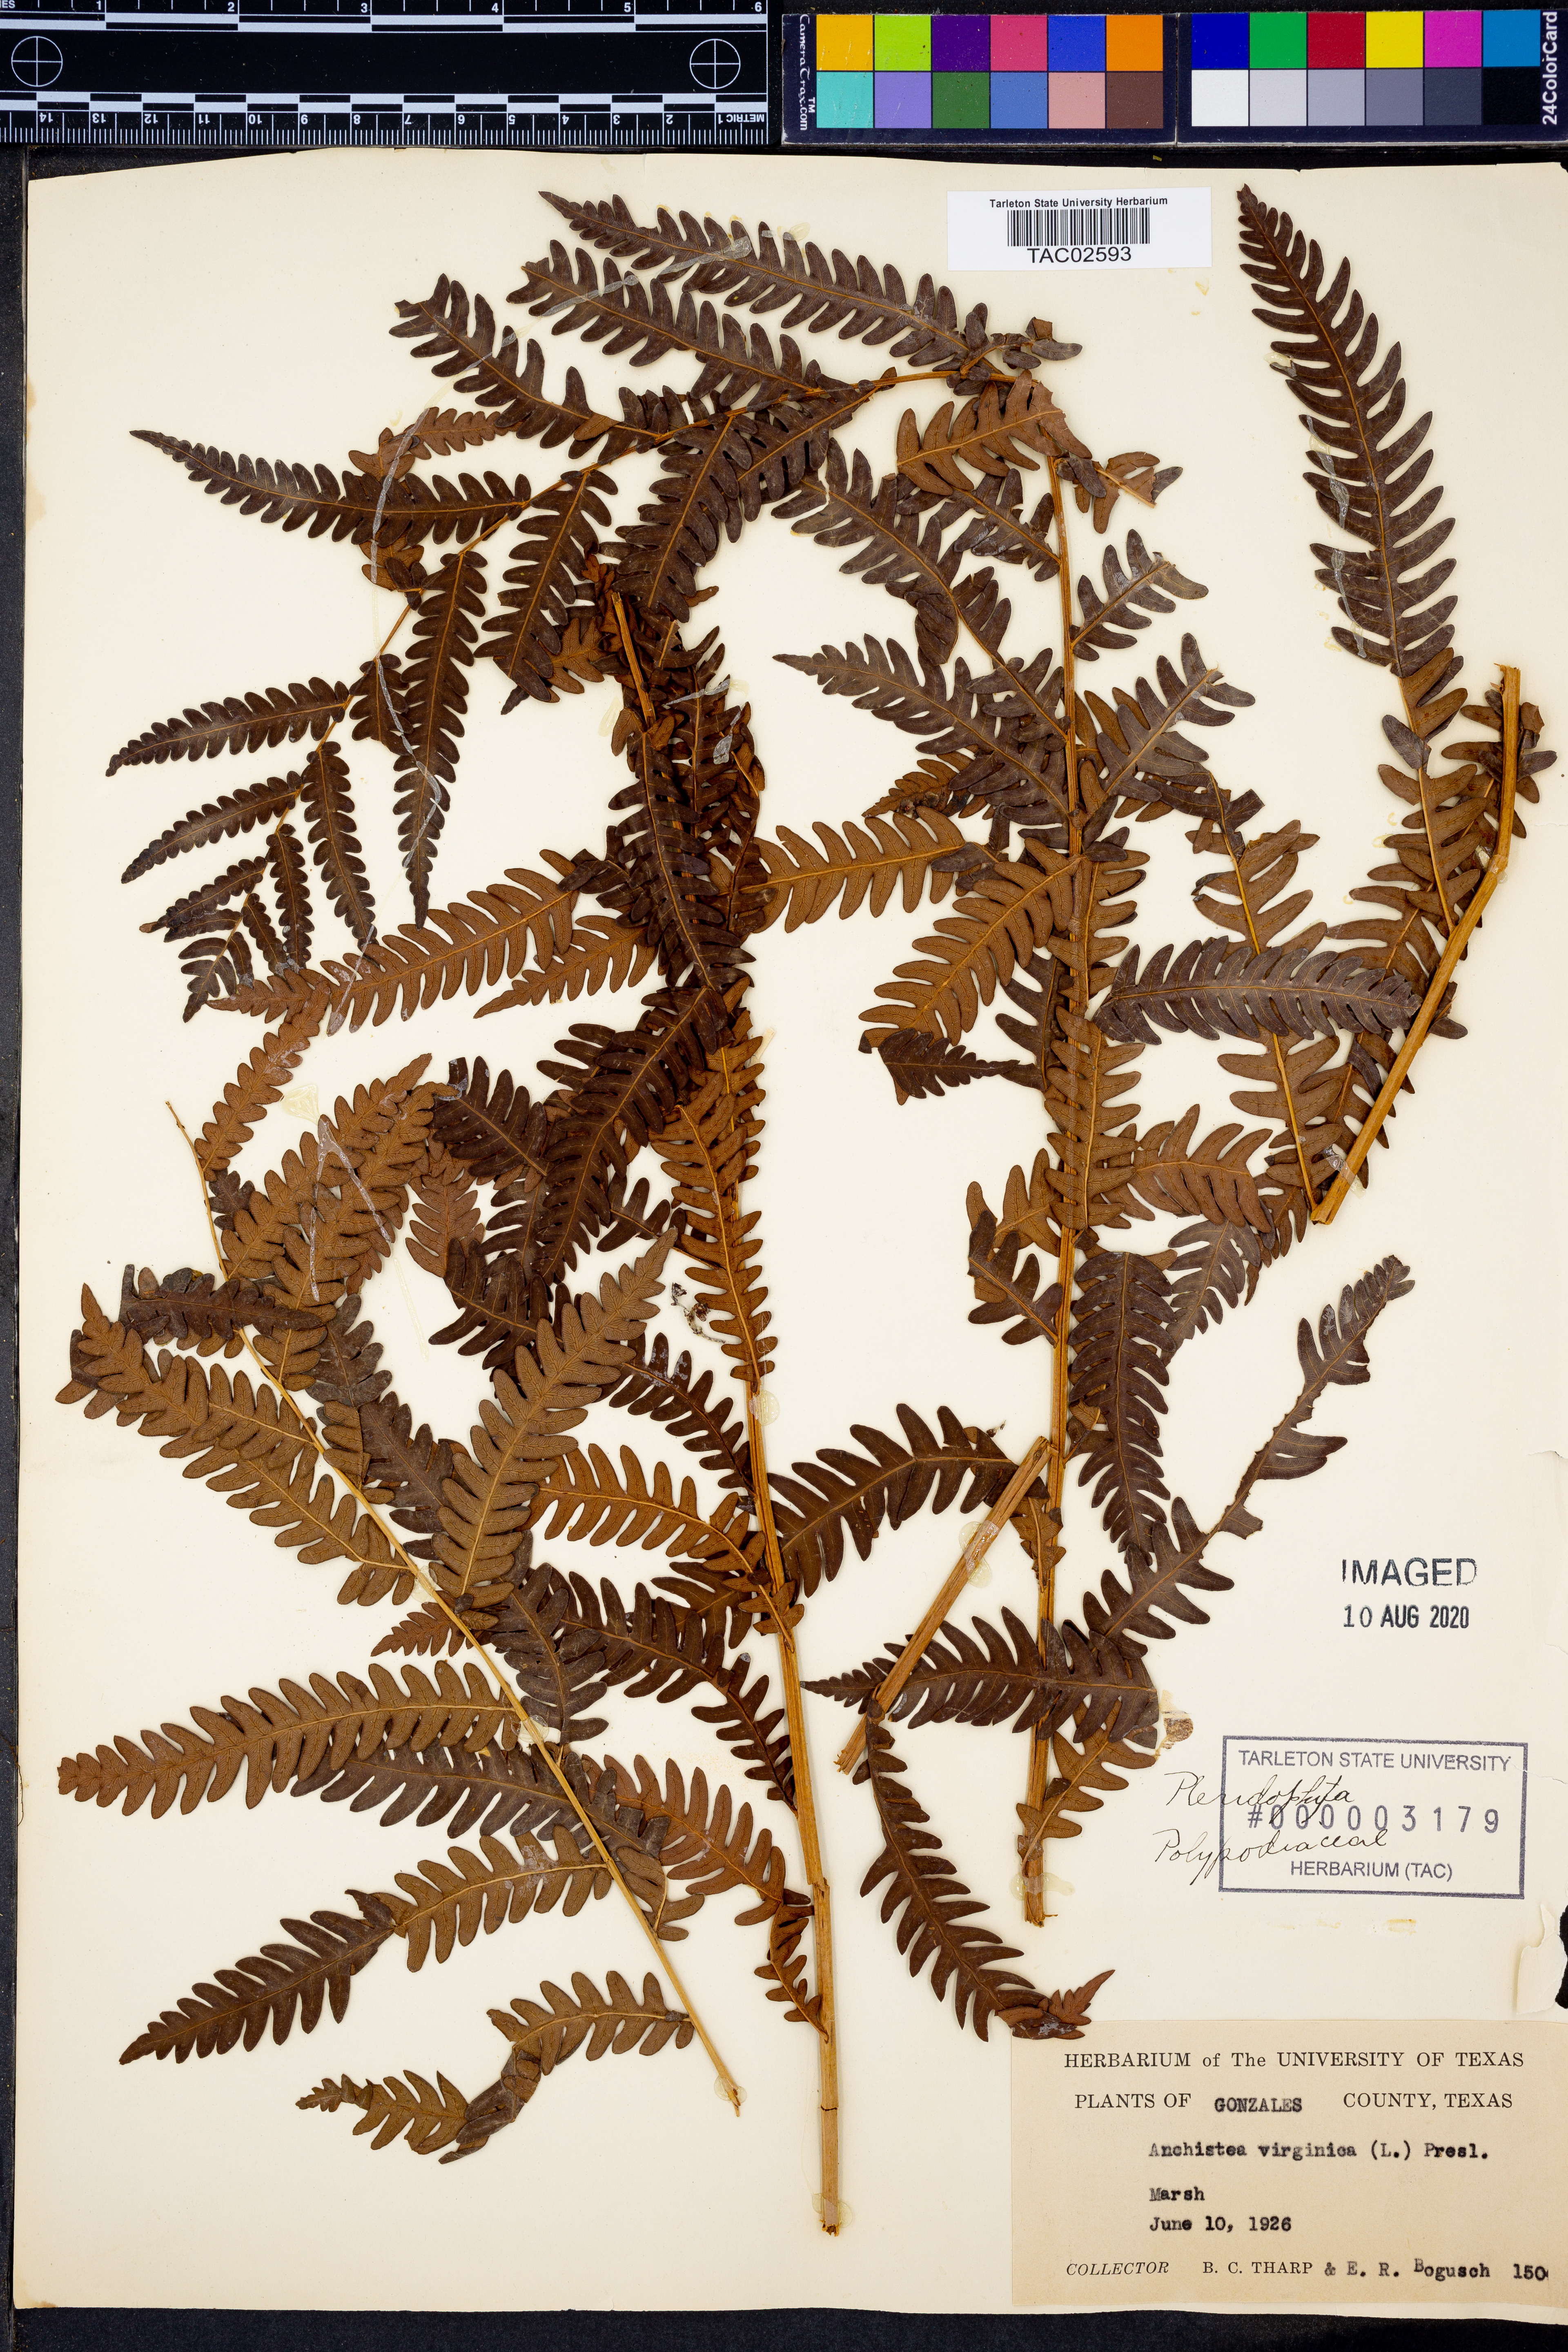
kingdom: Plantae
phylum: Tracheophyta
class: Polypodiopsida
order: Polypodiales
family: Blechnaceae
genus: Anchistea
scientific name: Anchistea virginica
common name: Virginia chain fern
